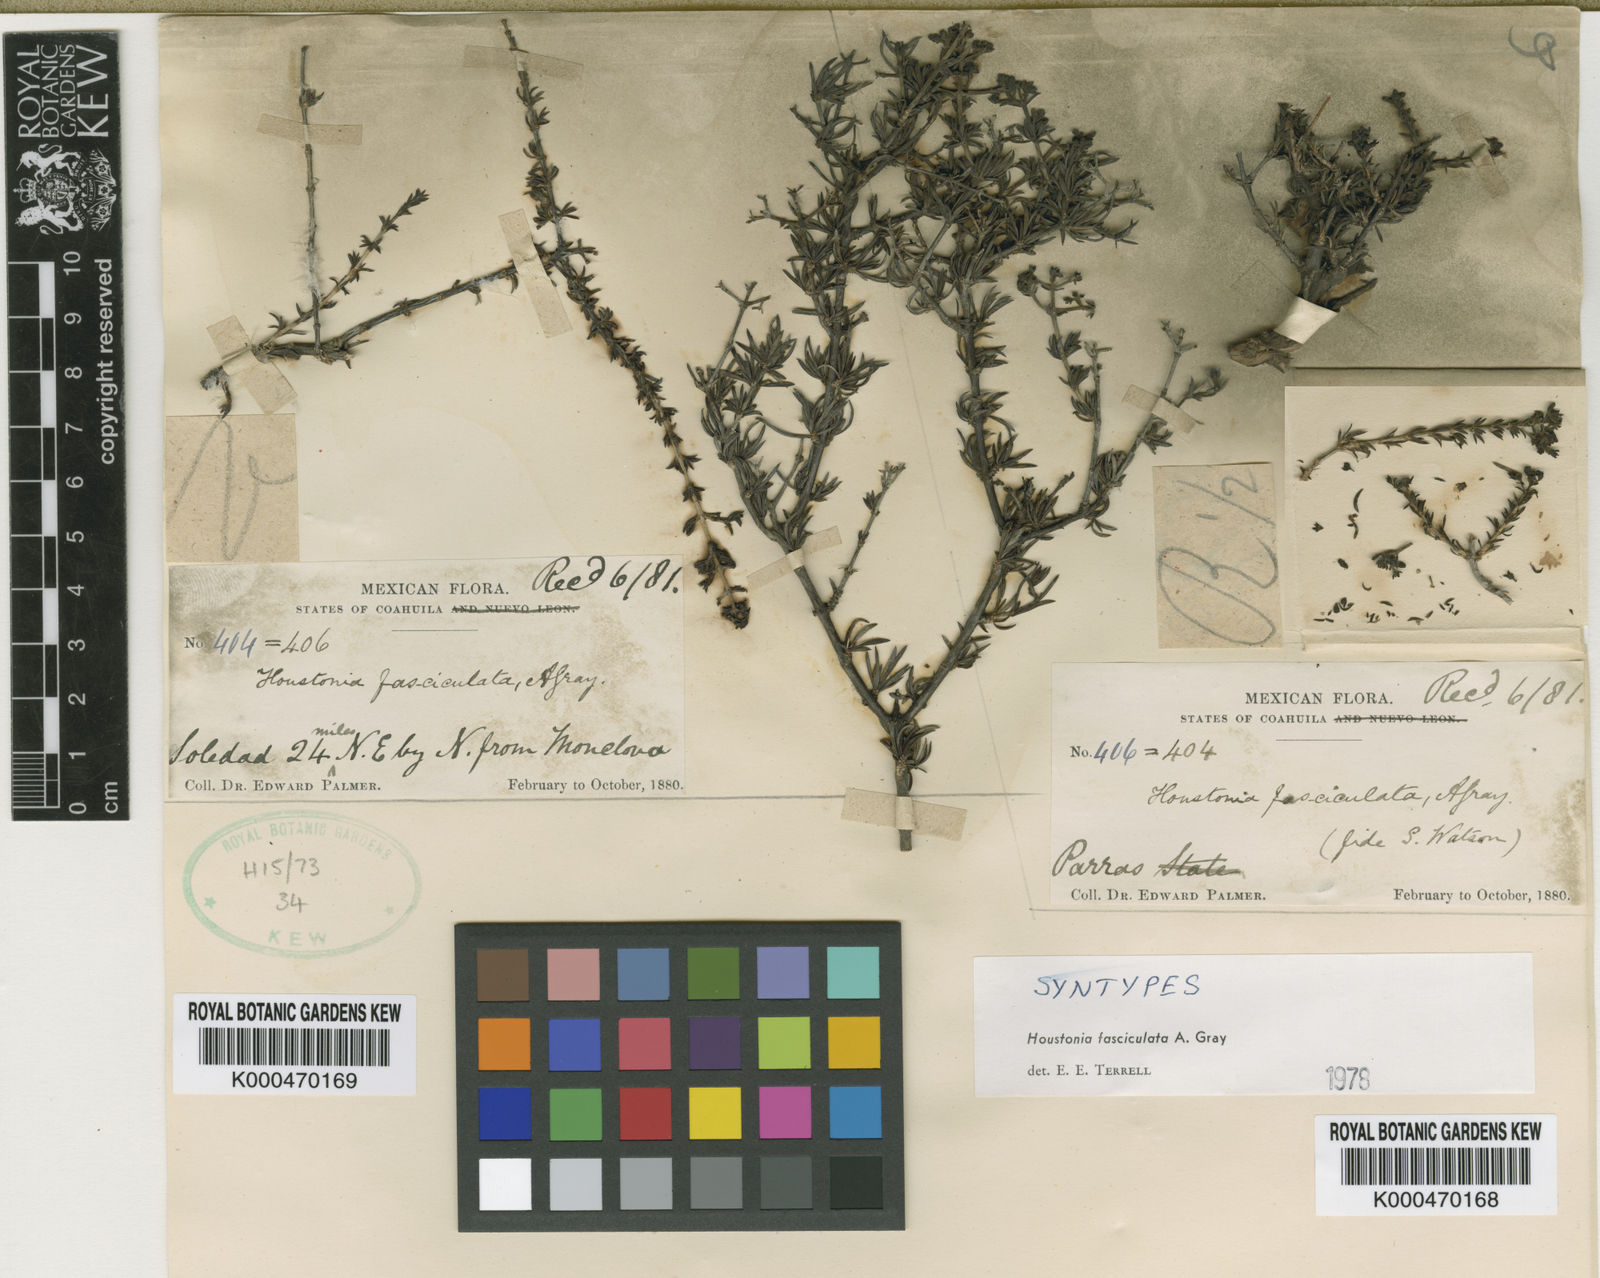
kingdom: Plantae
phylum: Tracheophyta
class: Magnoliopsida
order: Gentianales
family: Rubiaceae
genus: Arcytophyllum
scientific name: Arcytophyllum fasciculatum
